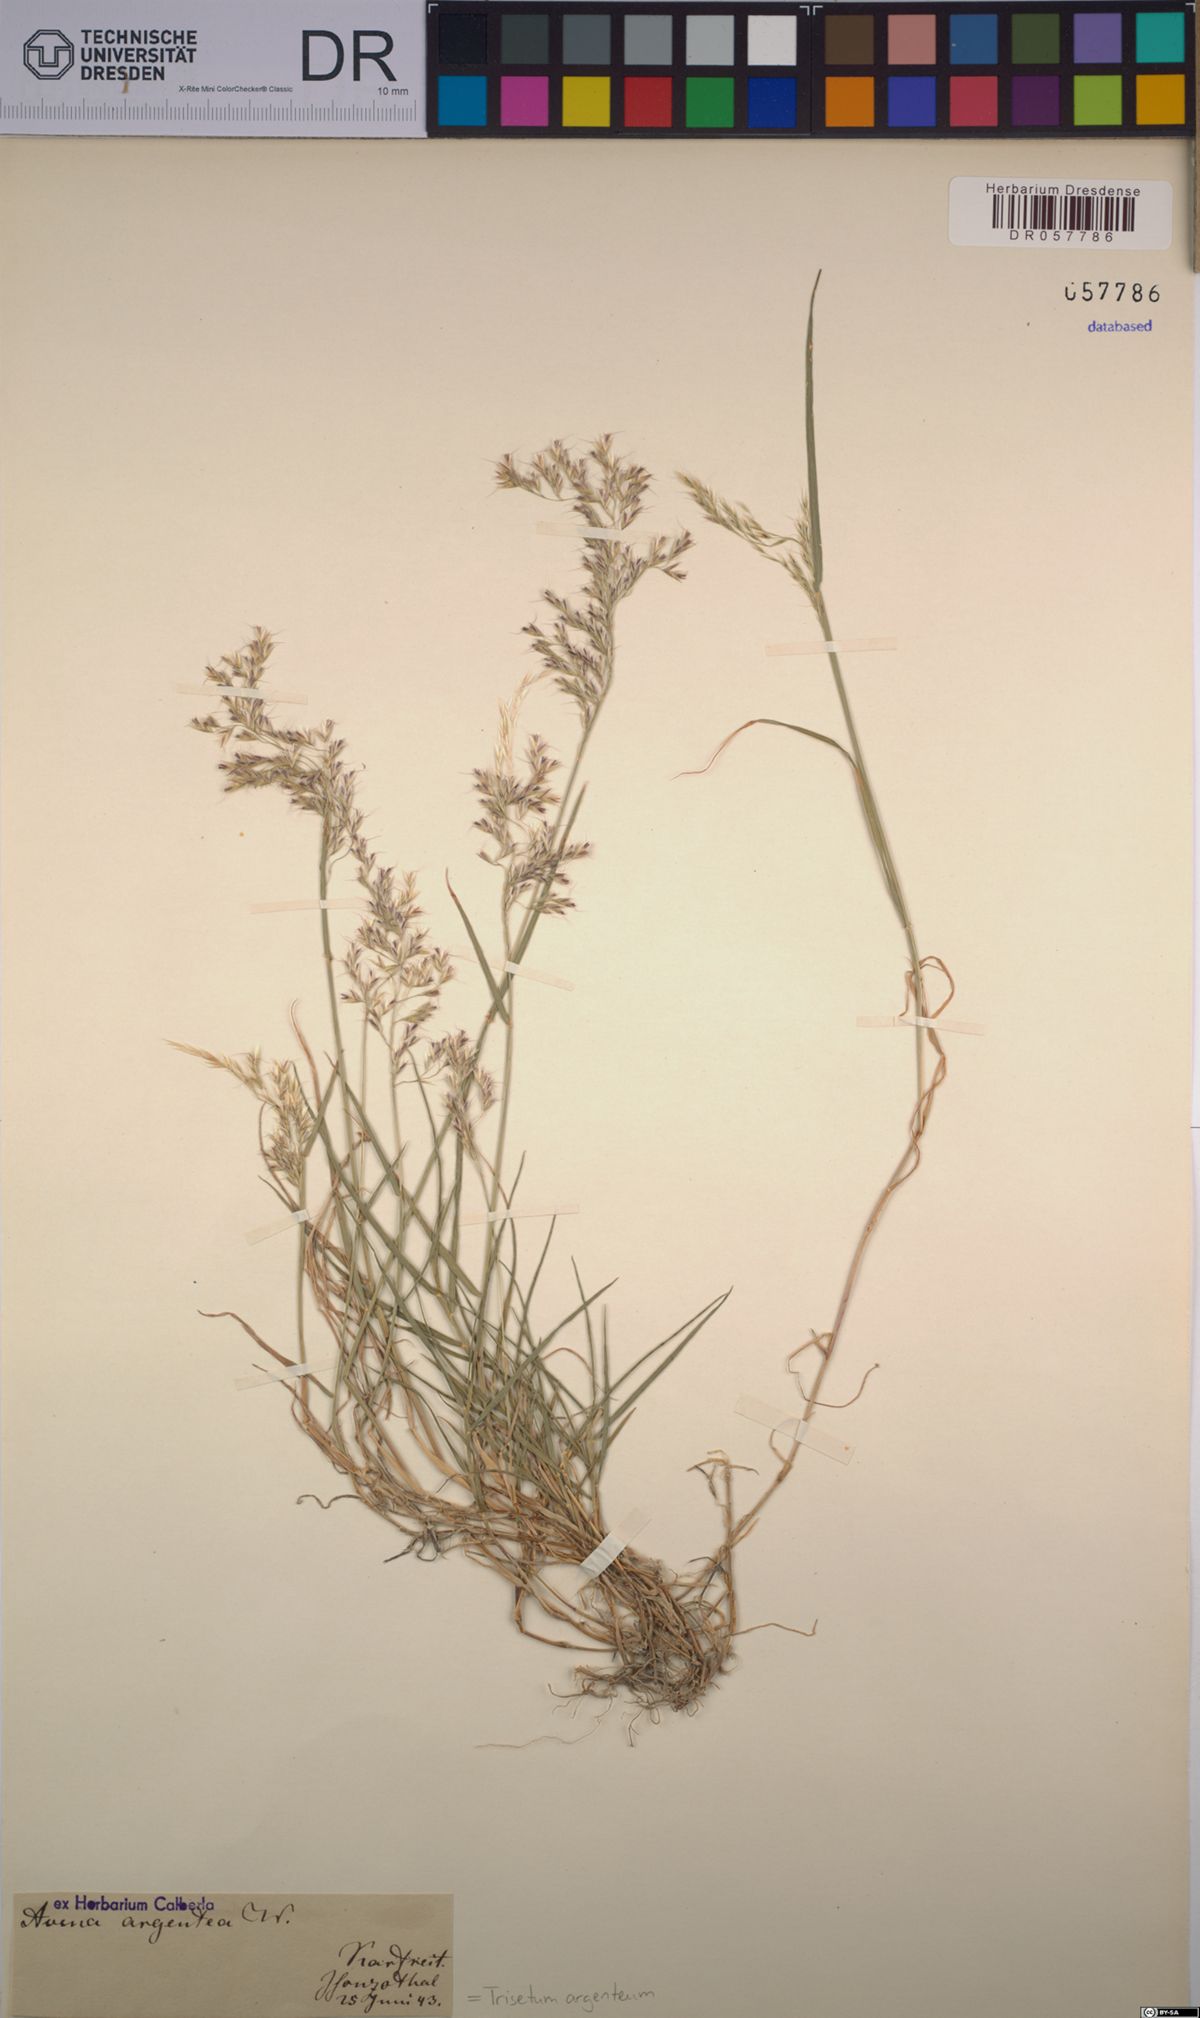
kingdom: Plantae
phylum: Tracheophyta
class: Liliopsida
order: Poales
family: Poaceae
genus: Trisetum
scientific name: Trisetum argenteum
